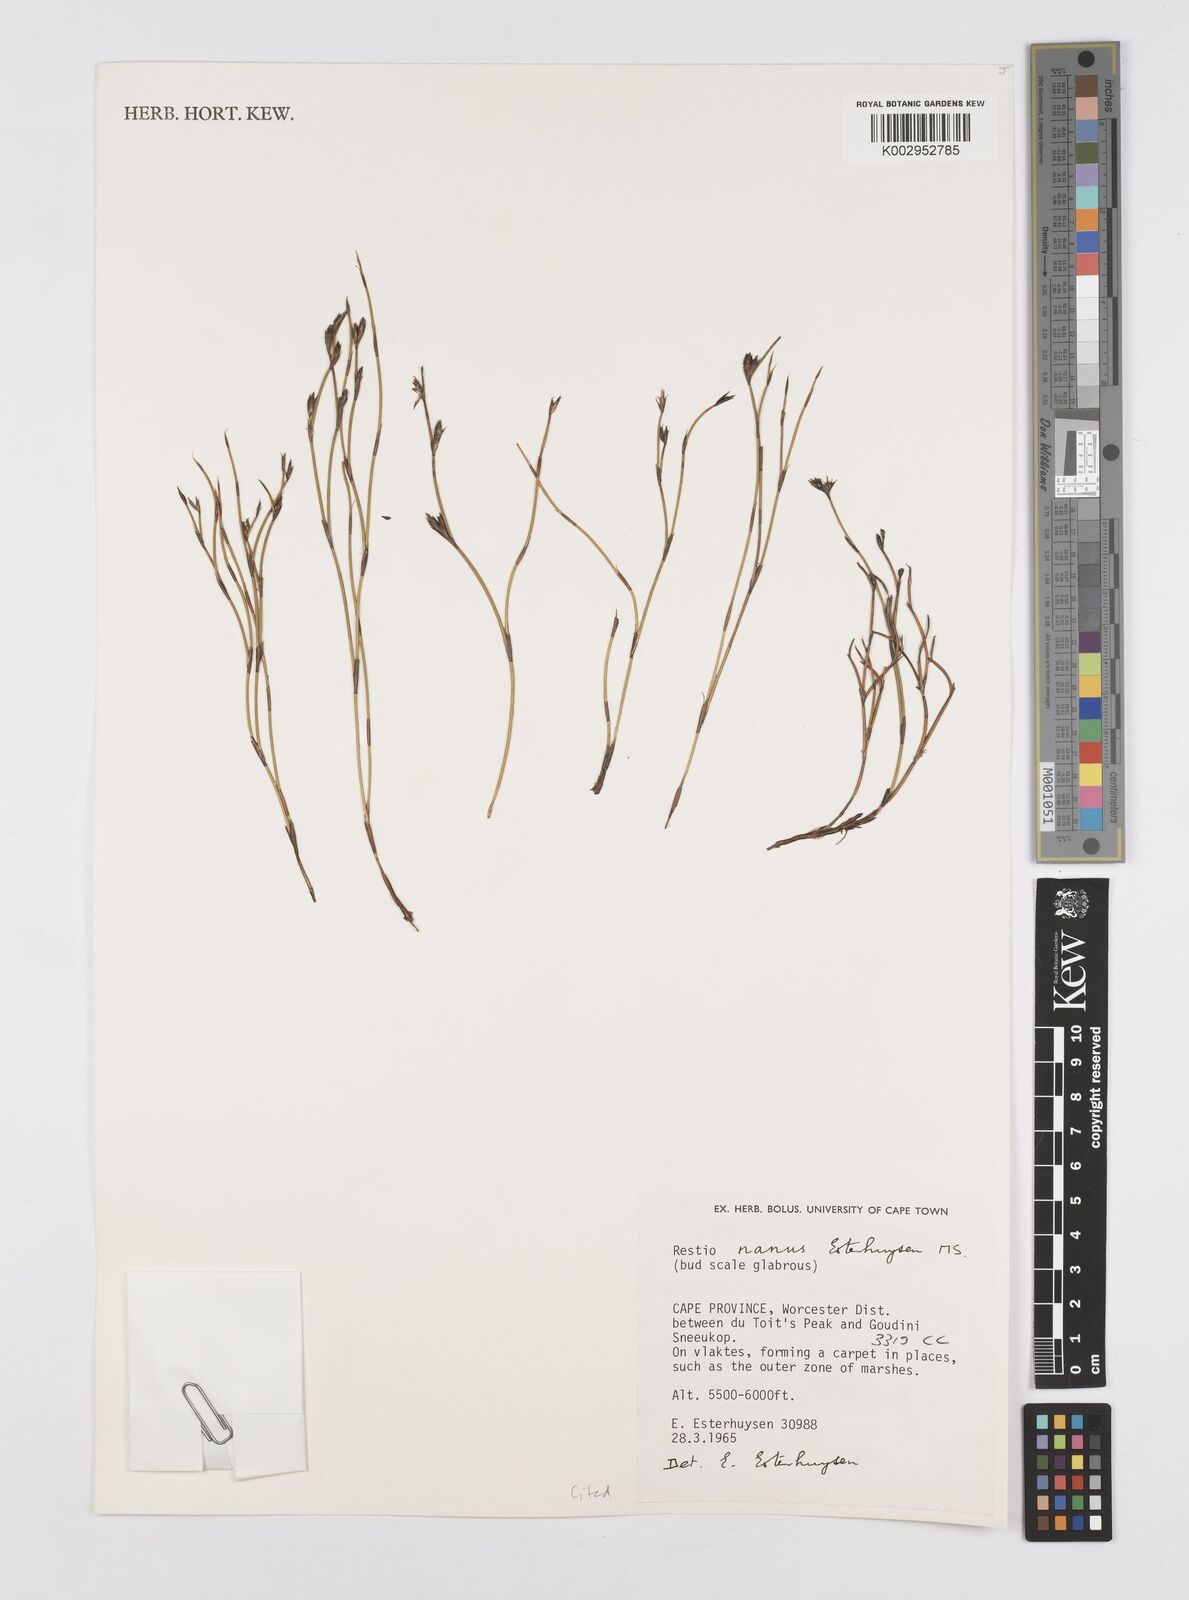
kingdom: Plantae
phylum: Tracheophyta
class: Liliopsida
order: Poales
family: Restionaceae
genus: Restio
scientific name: Restio nanus
